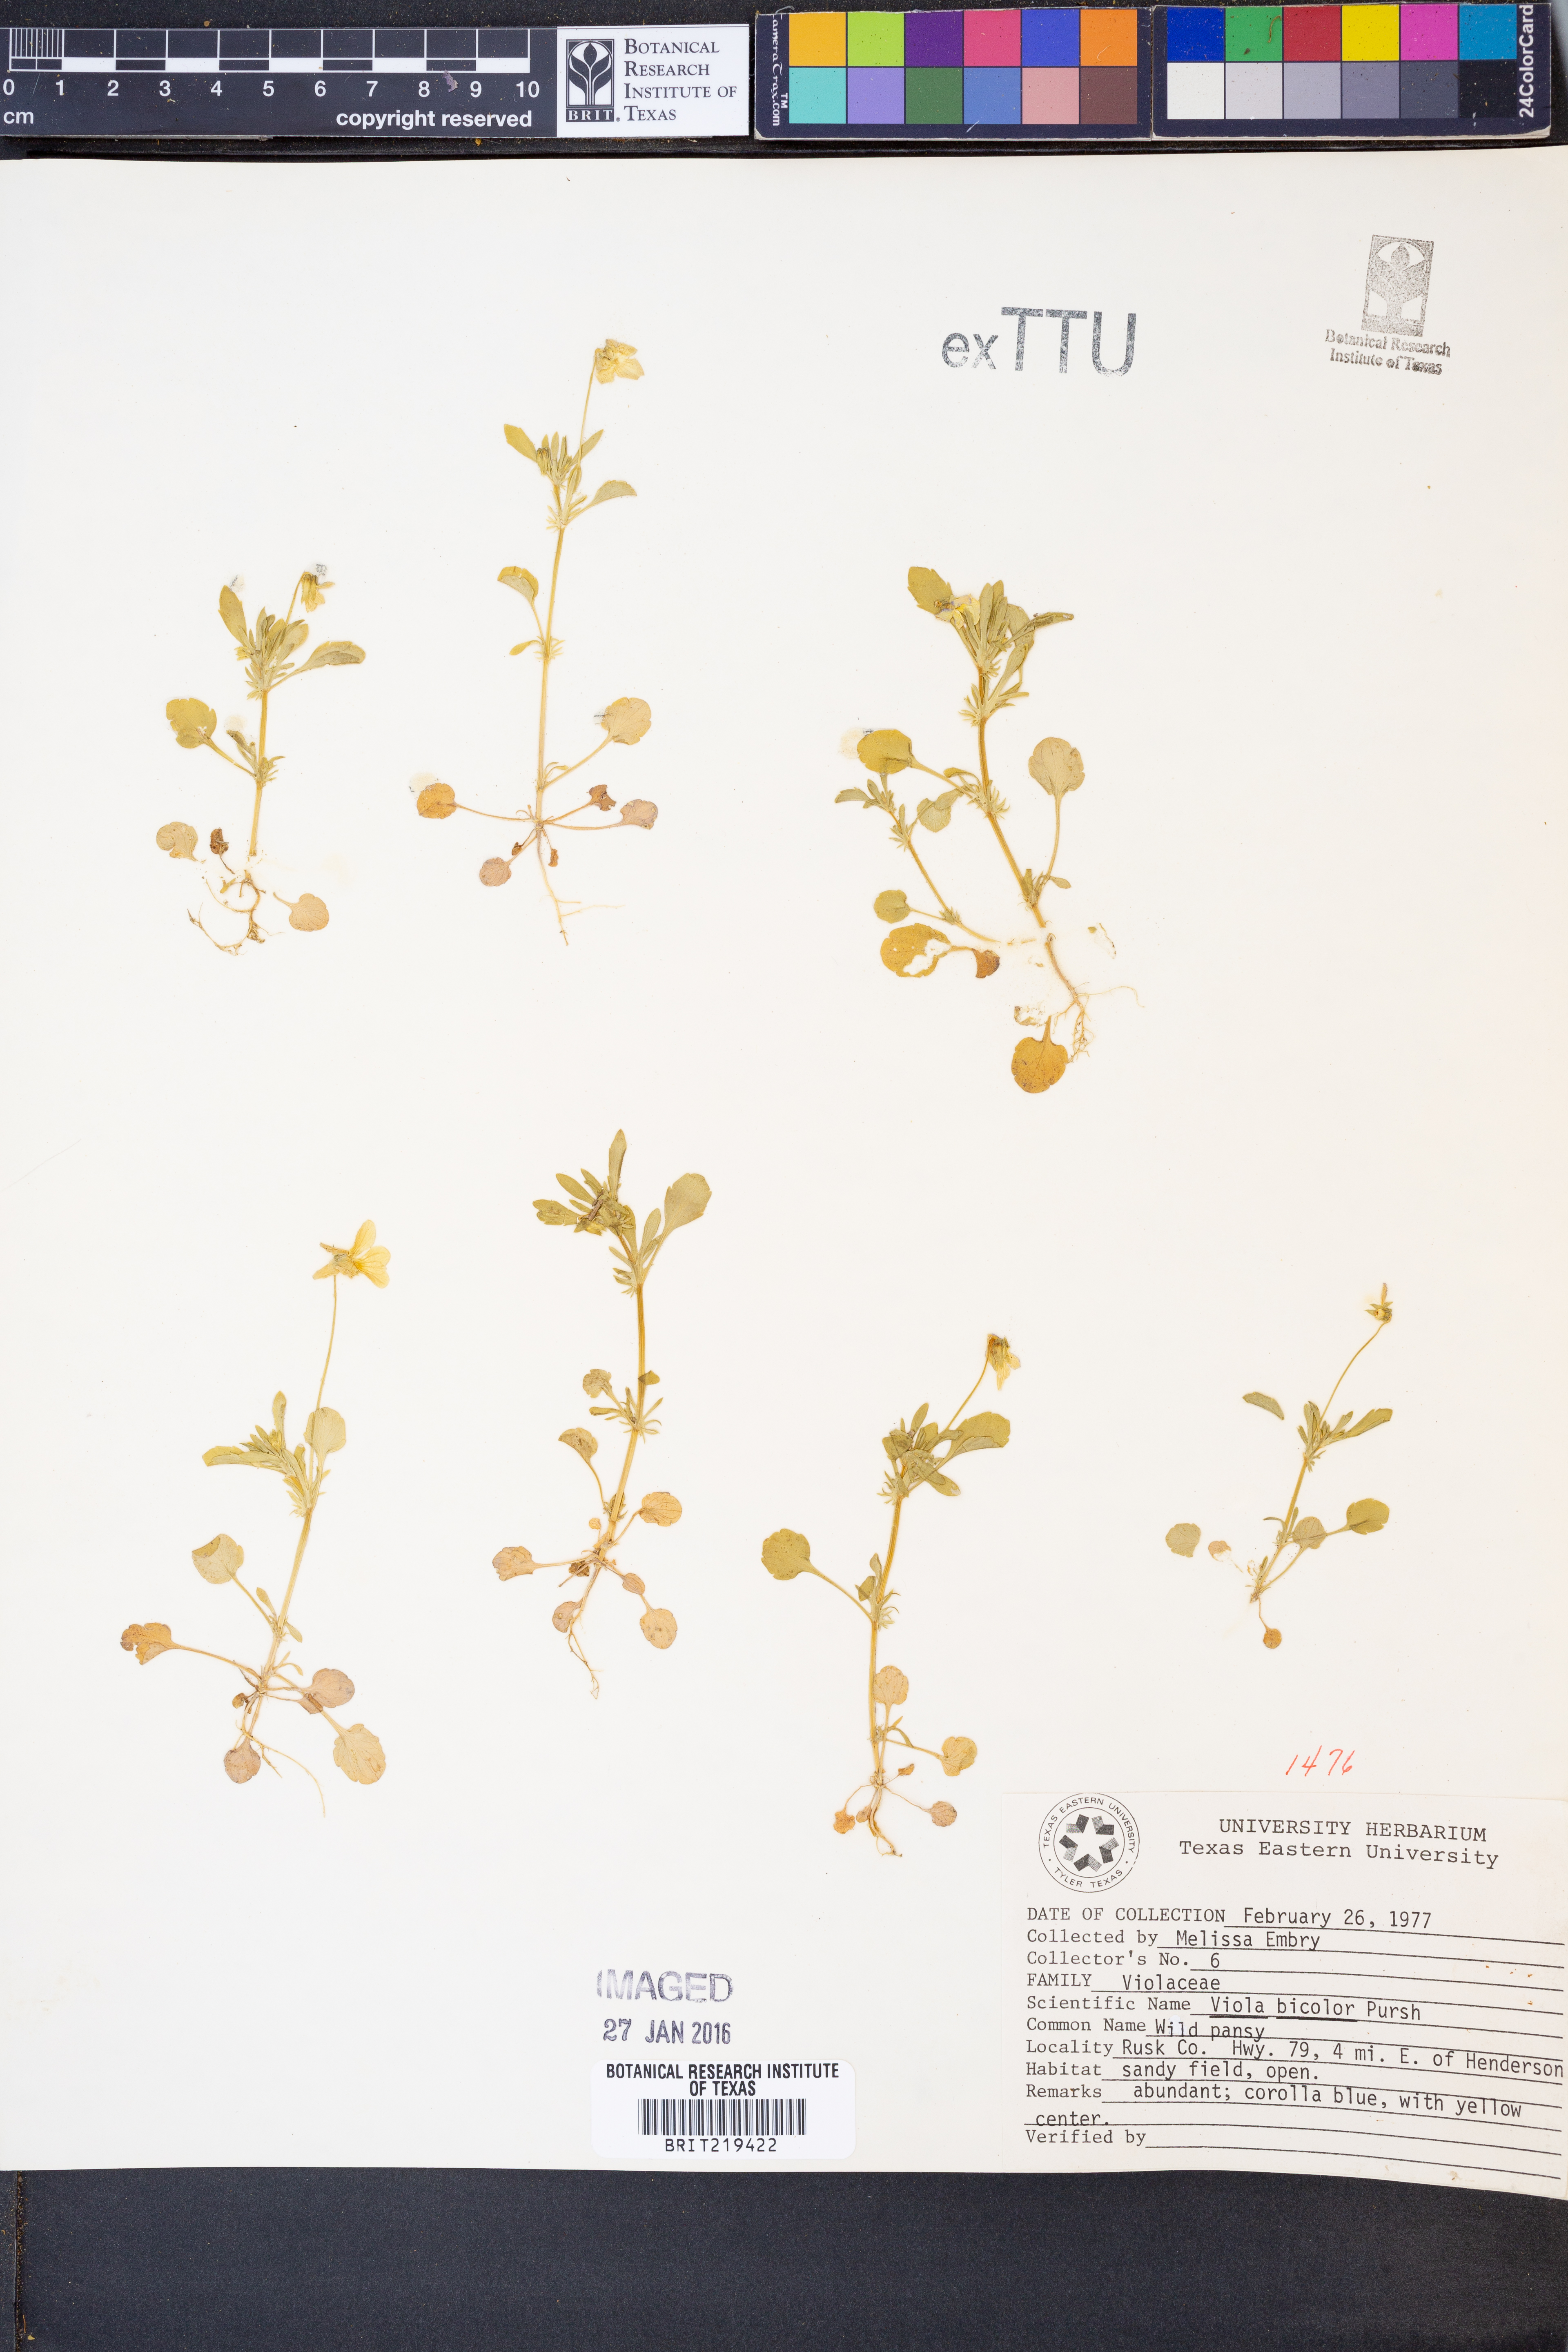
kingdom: Plantae
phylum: Tracheophyta
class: Magnoliopsida
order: Malpighiales
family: Violaceae
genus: Viola
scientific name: Viola rafinesquei
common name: American field pansy
